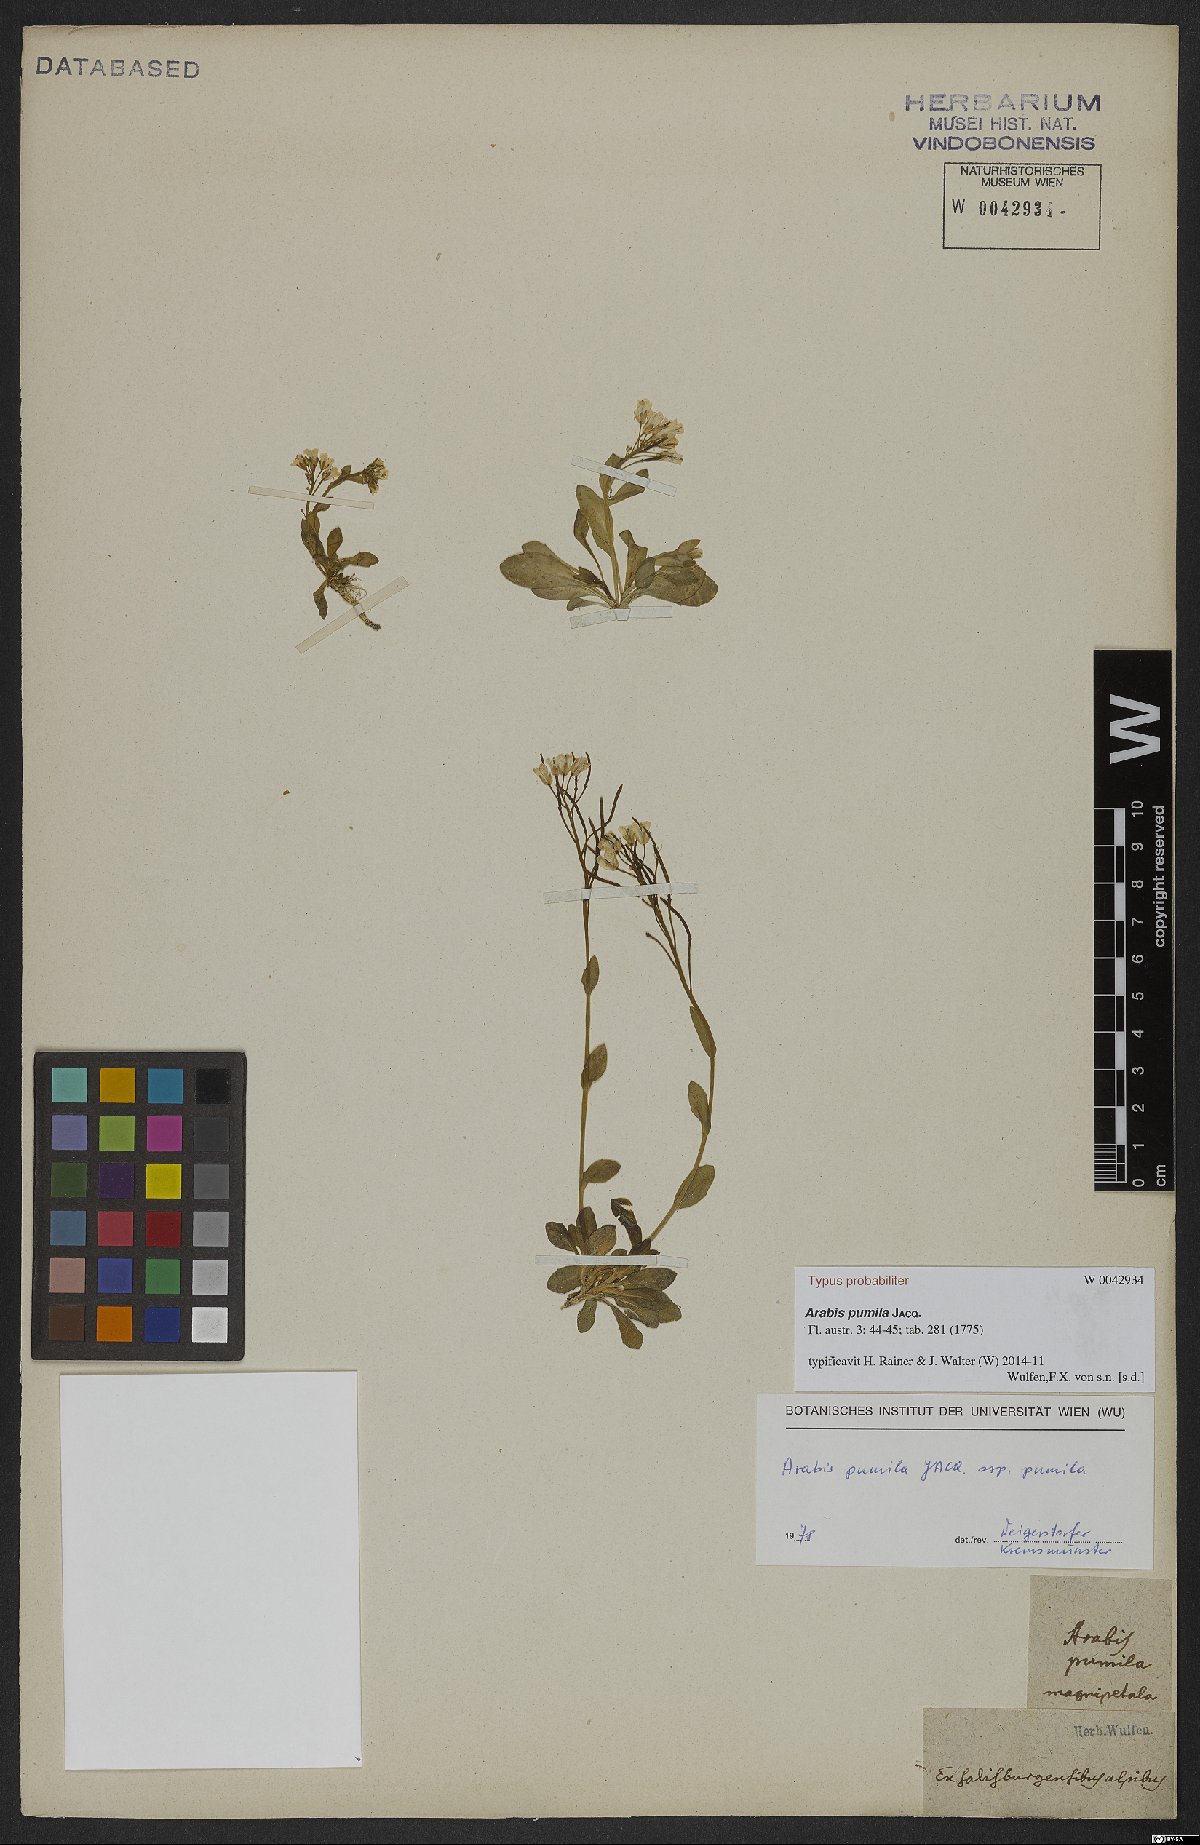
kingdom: Plantae
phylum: Tracheophyta
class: Magnoliopsida
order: Brassicales
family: Brassicaceae
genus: Arabis
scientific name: Arabis pumila
